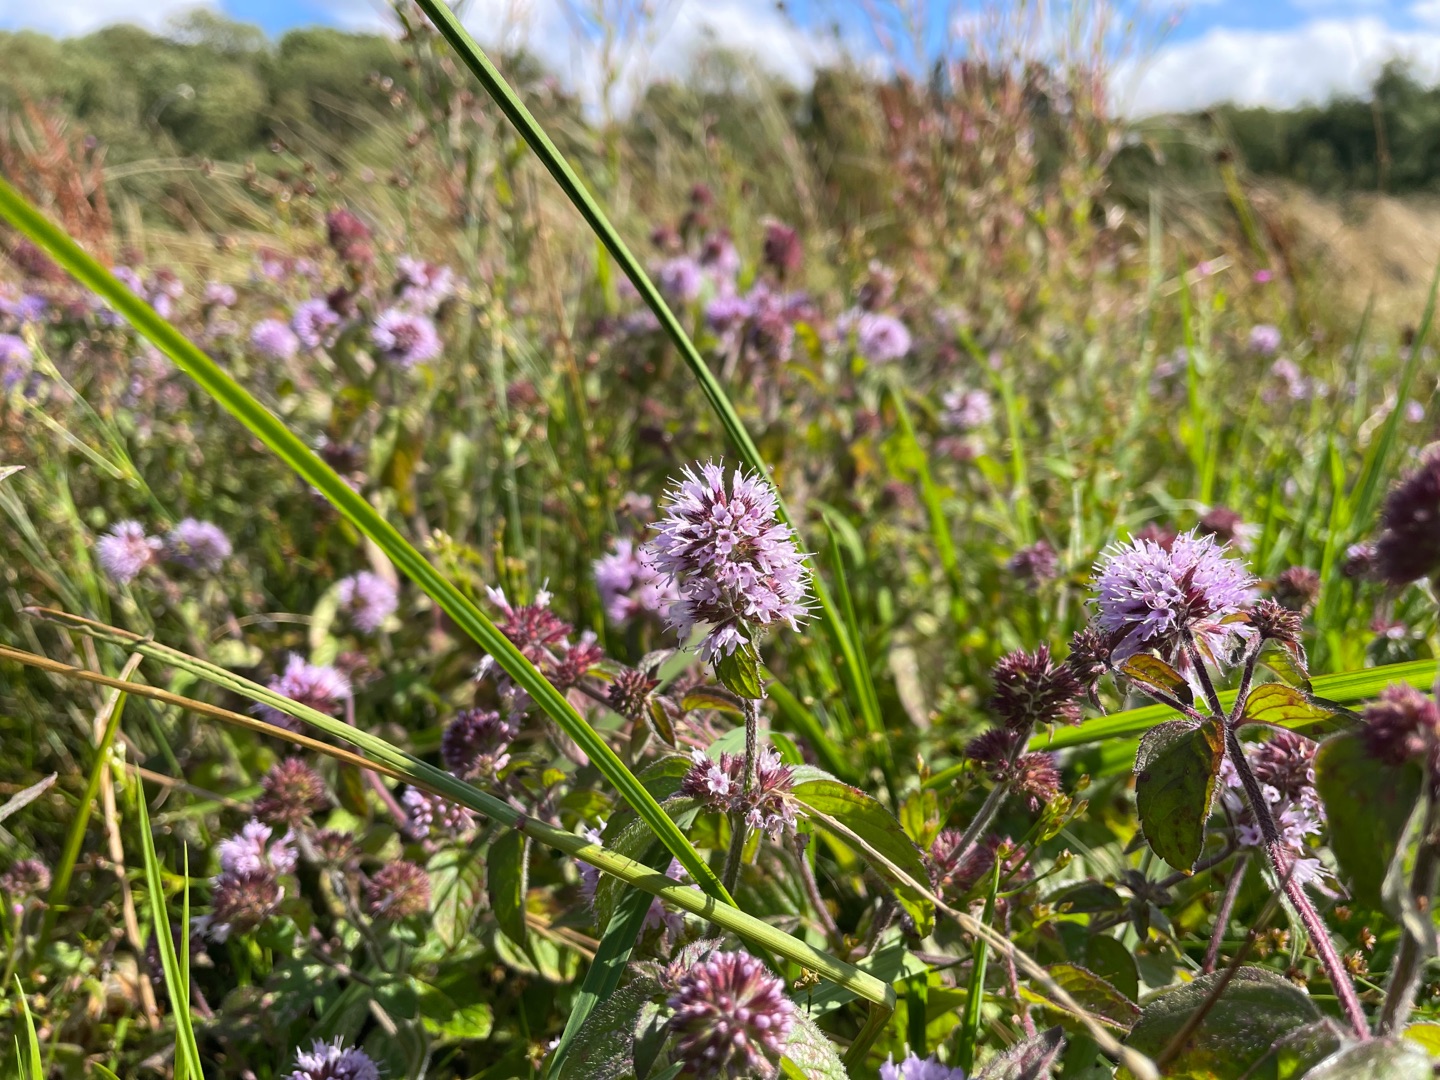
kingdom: Plantae
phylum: Tracheophyta
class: Magnoliopsida
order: Lamiales
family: Lamiaceae
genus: Mentha
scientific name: Mentha aquatica
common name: Vand-mynte
